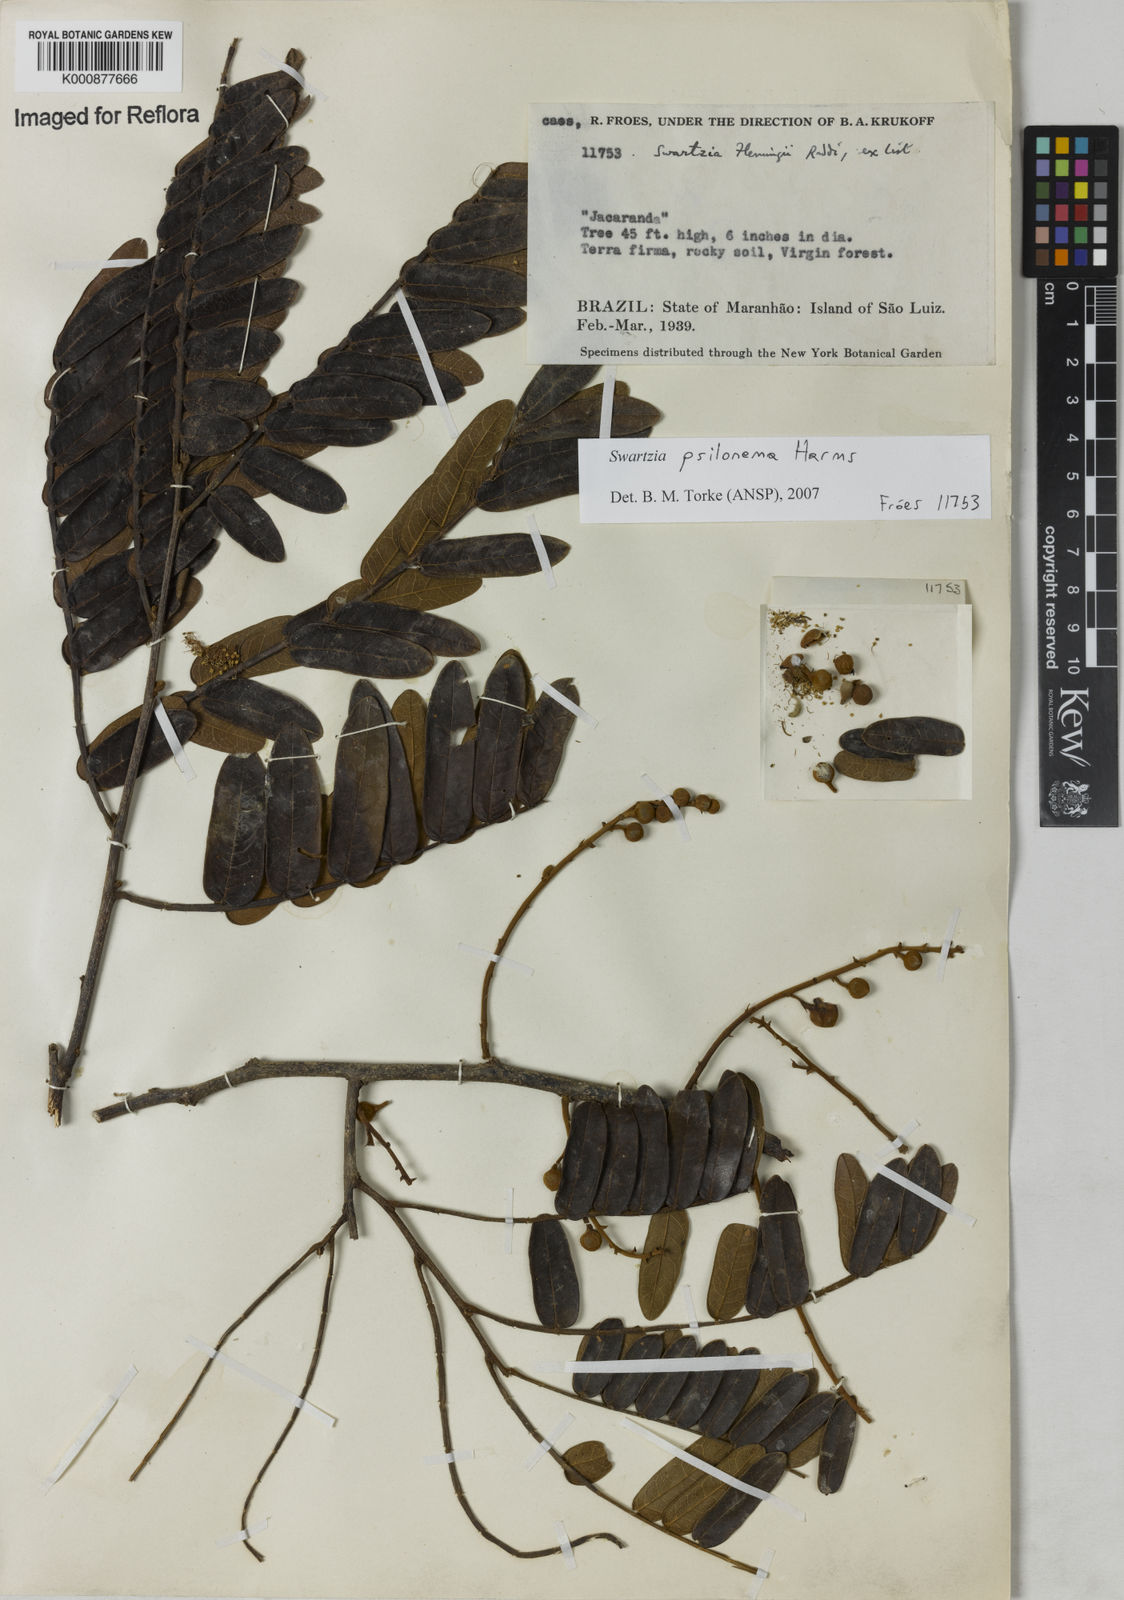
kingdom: Plantae
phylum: Tracheophyta
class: Magnoliopsida
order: Fabales
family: Fabaceae
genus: Swartzia
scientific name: Swartzia psilonema
